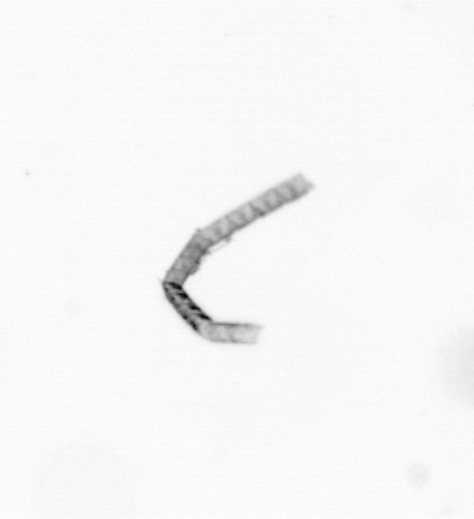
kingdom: Chromista
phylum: Ochrophyta
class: Bacillariophyceae
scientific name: Bacillariophyceae
